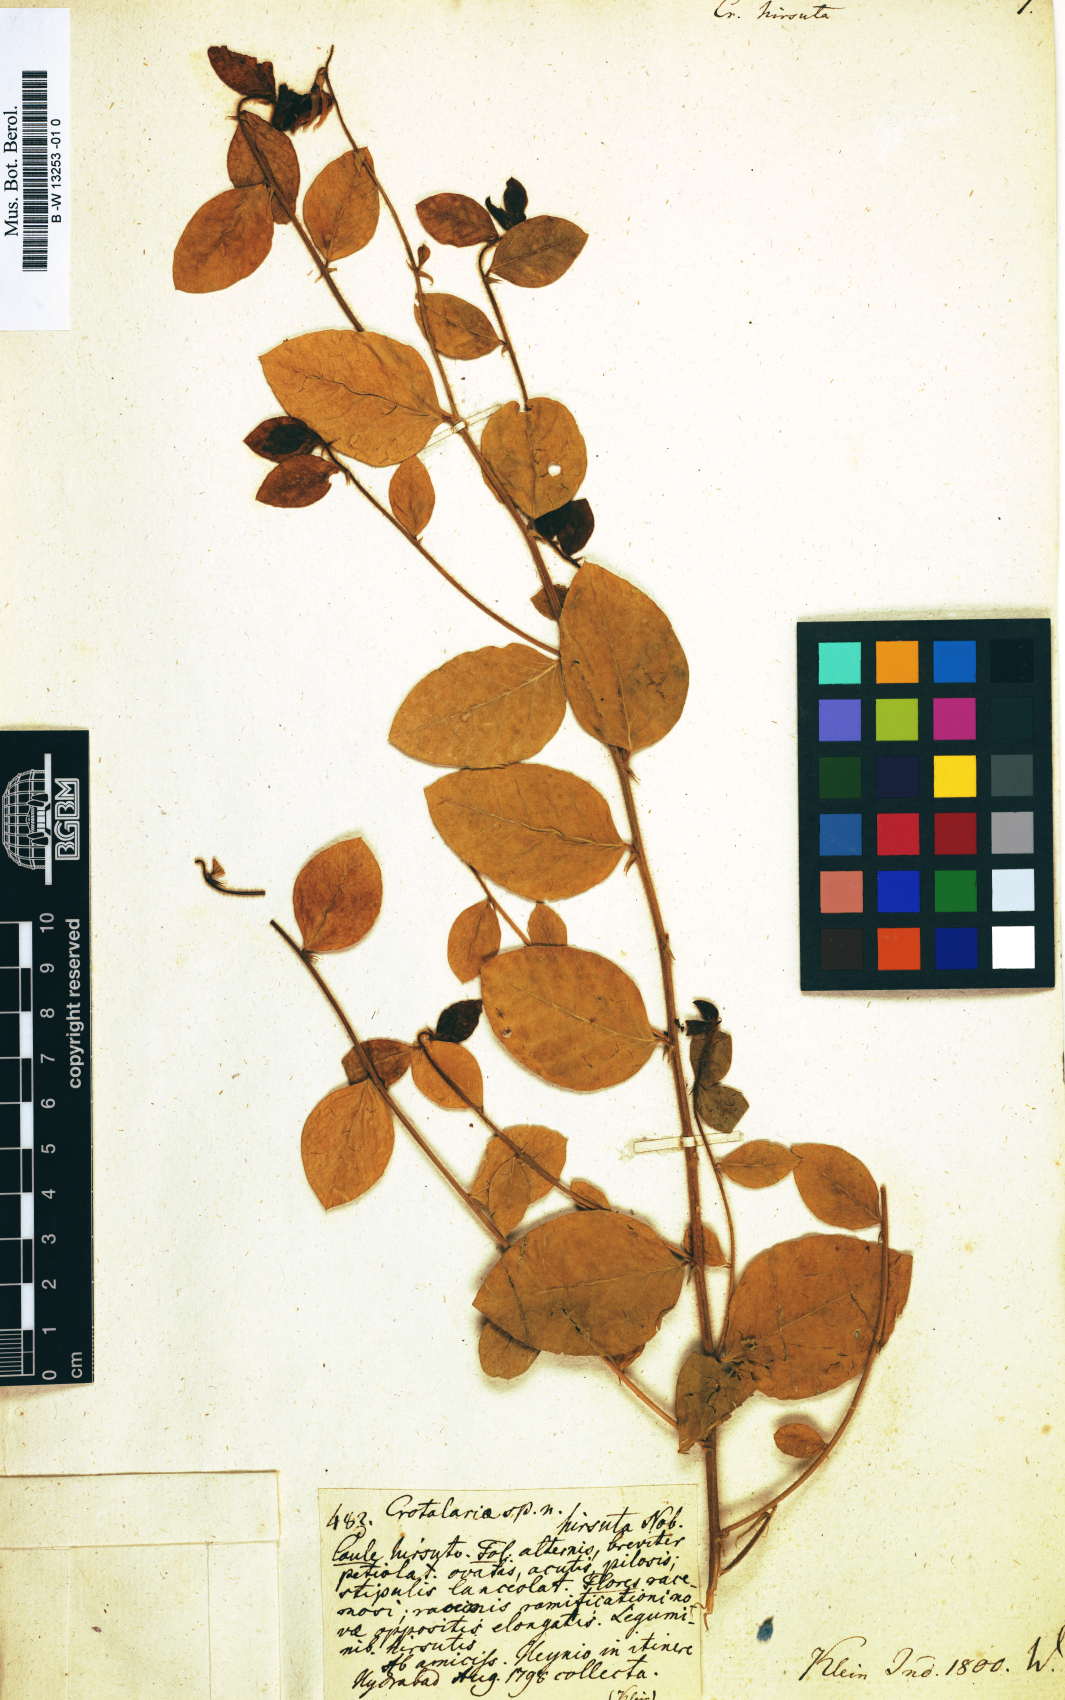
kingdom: Plantae
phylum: Tracheophyta
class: Magnoliopsida
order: Fabales
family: Fabaceae
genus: Crotalaria
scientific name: Crotalaria hirsuta
